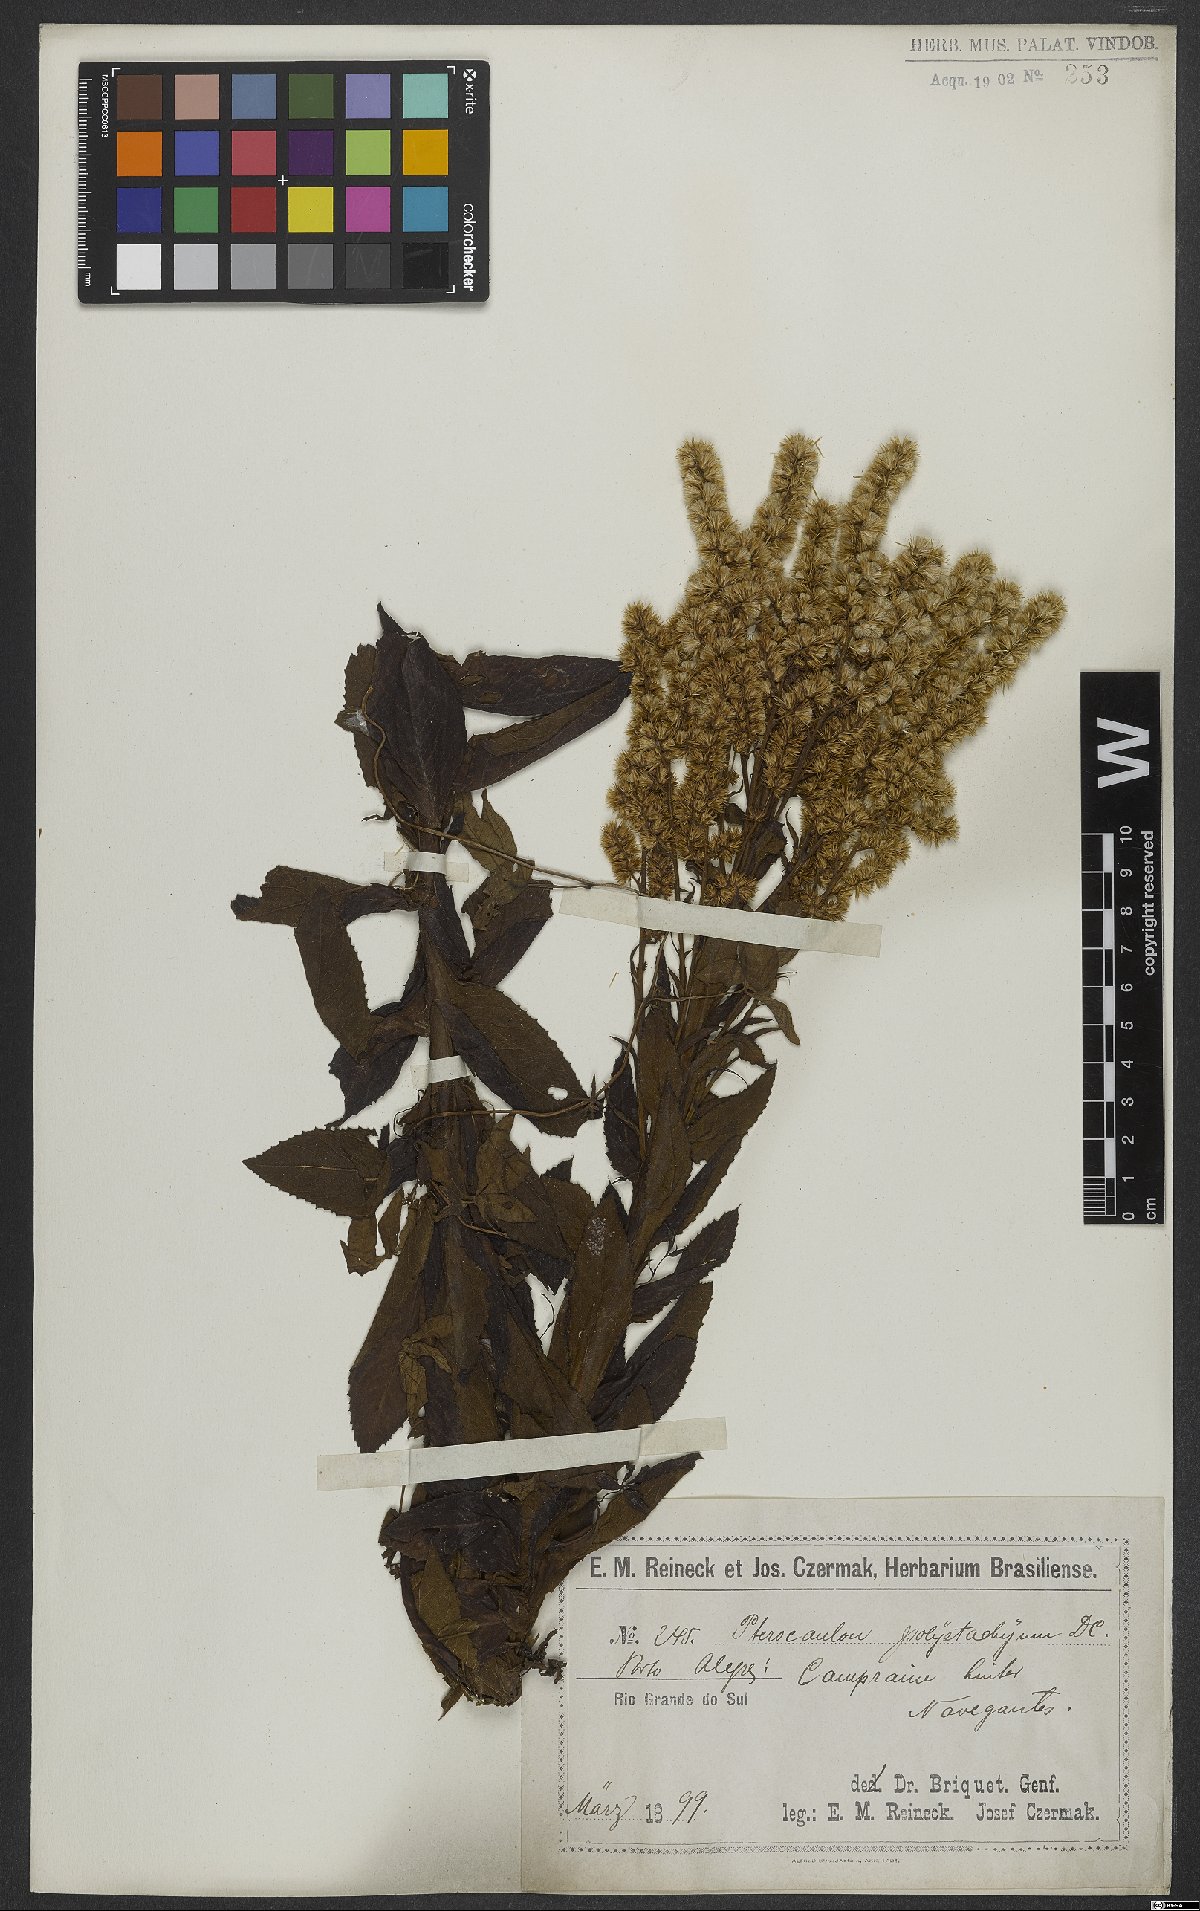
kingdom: Plantae
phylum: Tracheophyta
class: Magnoliopsida
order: Asterales
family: Asteraceae
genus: Pterocaulon
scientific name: Pterocaulon polystachyum
